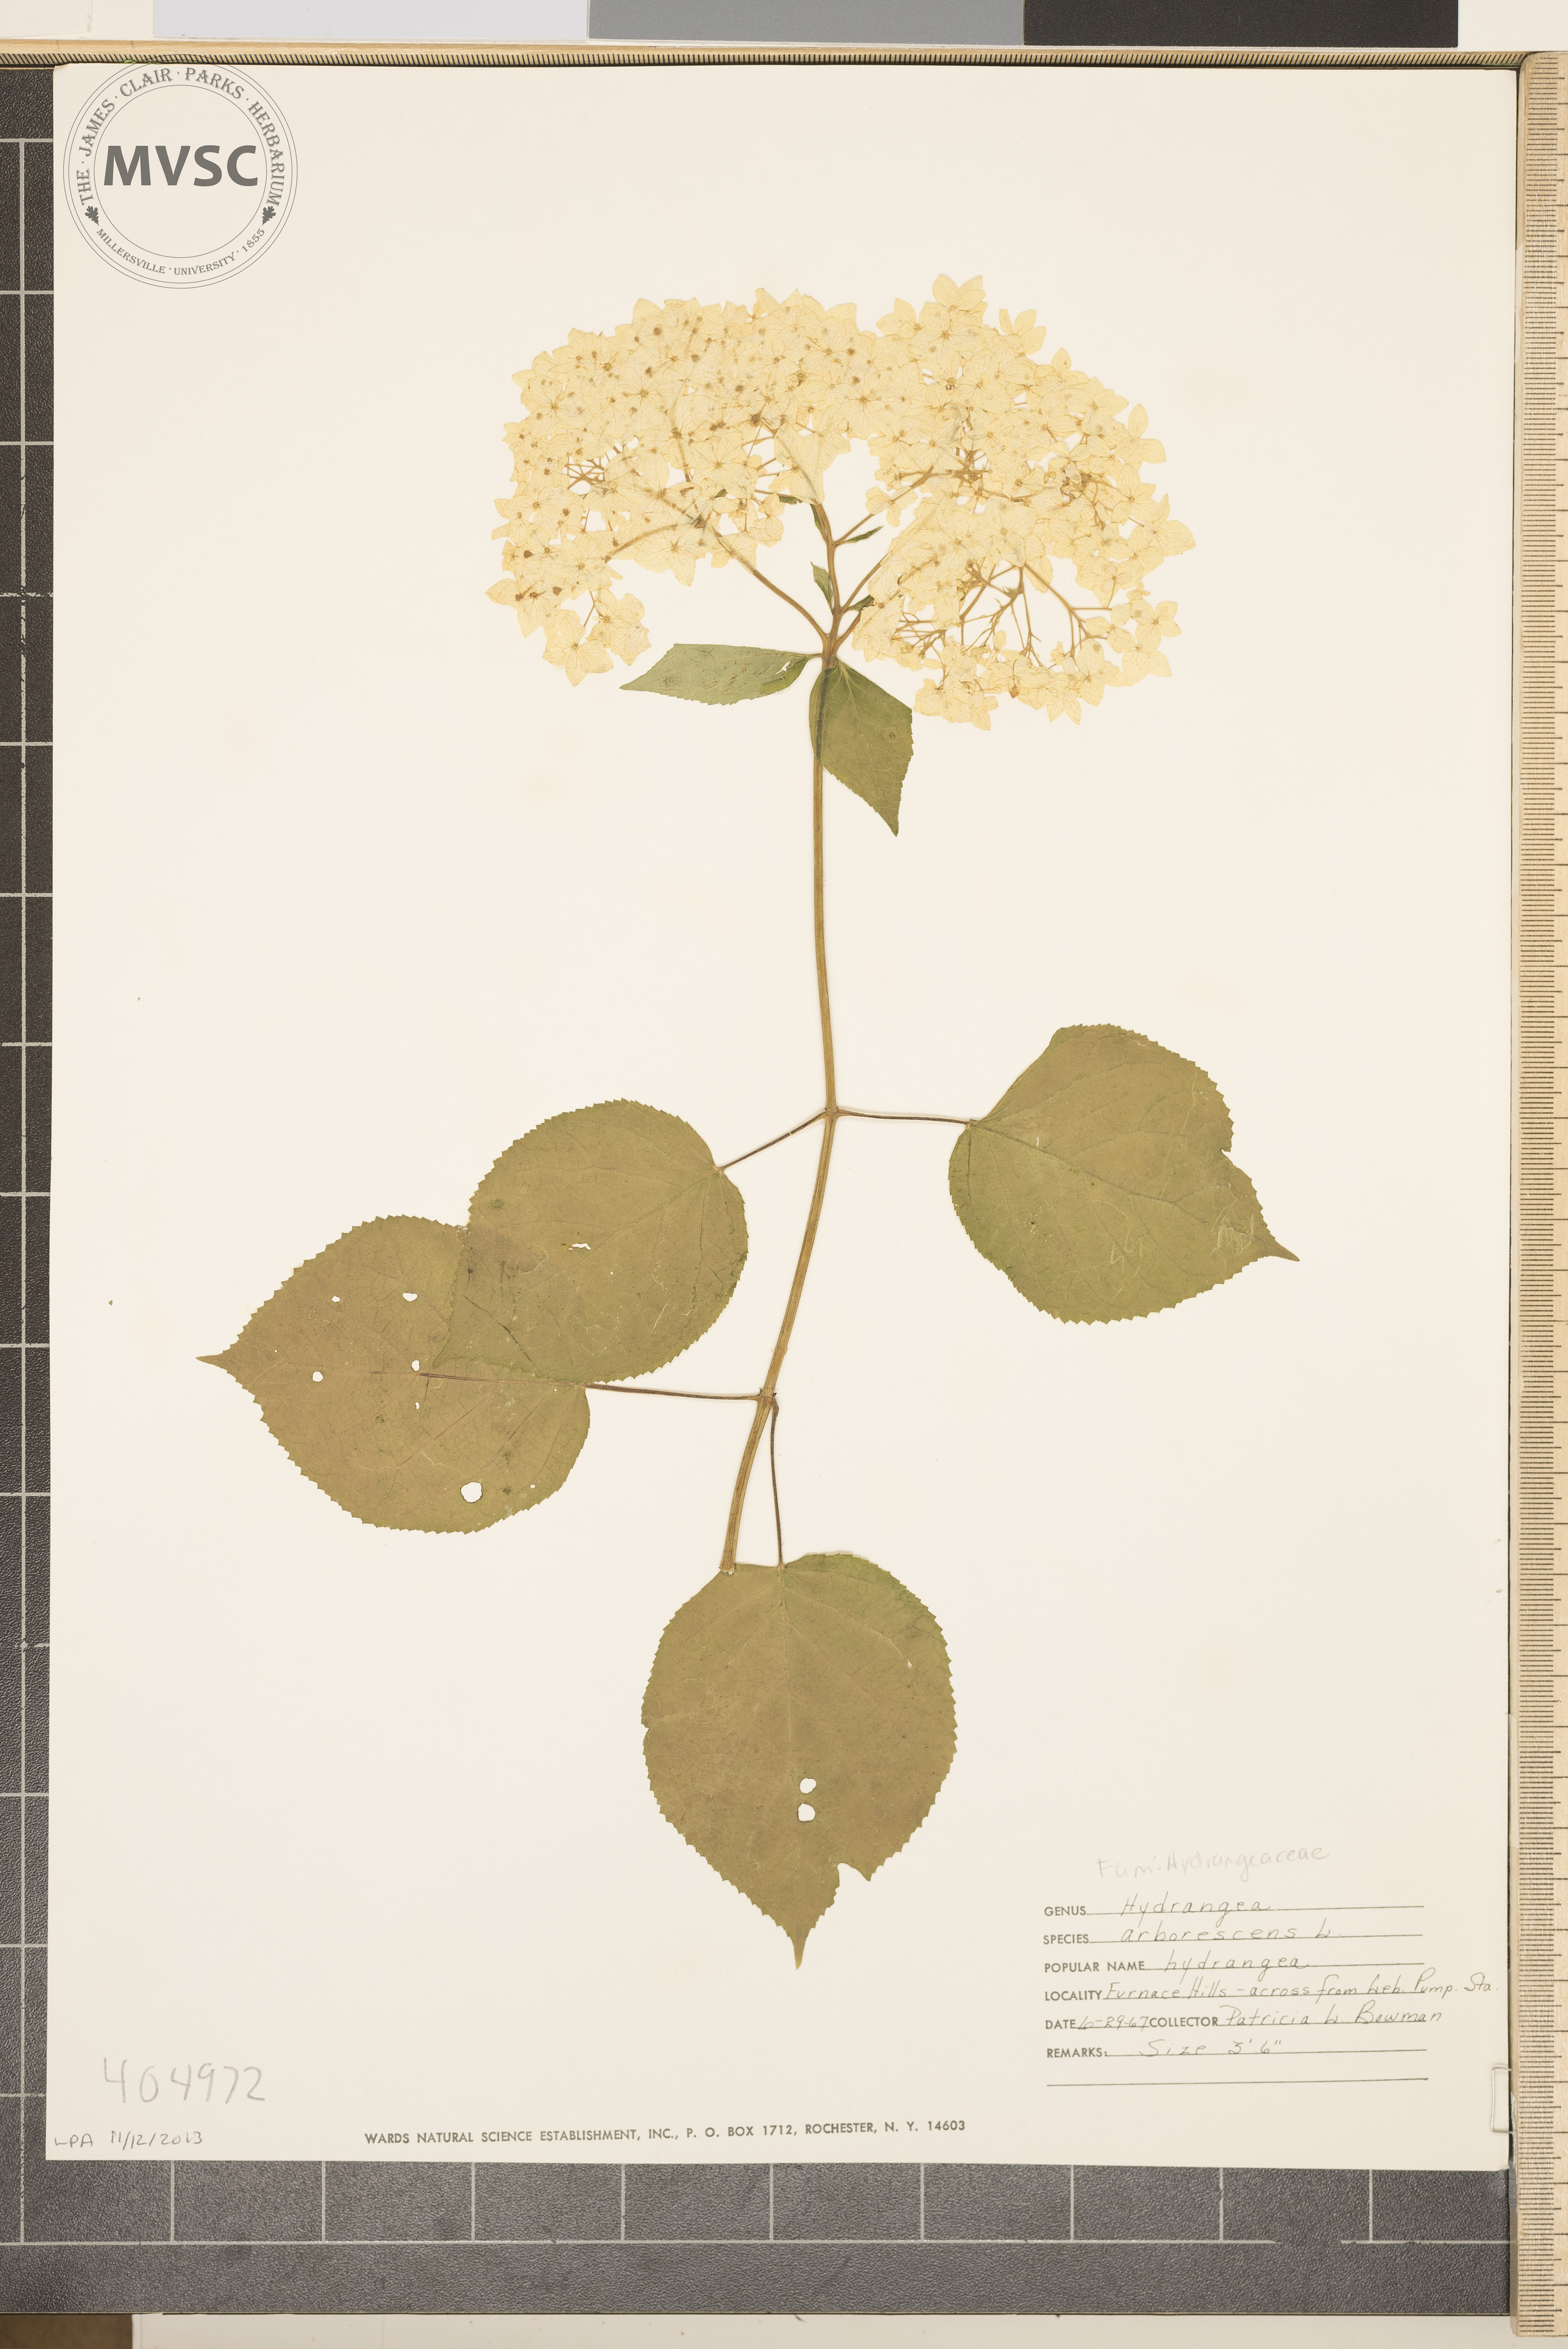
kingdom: Plantae
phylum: Tracheophyta
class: Magnoliopsida
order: Cornales
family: Hydrangeaceae
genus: Hydrangea
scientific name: Hydrangea arborescens
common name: Hydrangea
